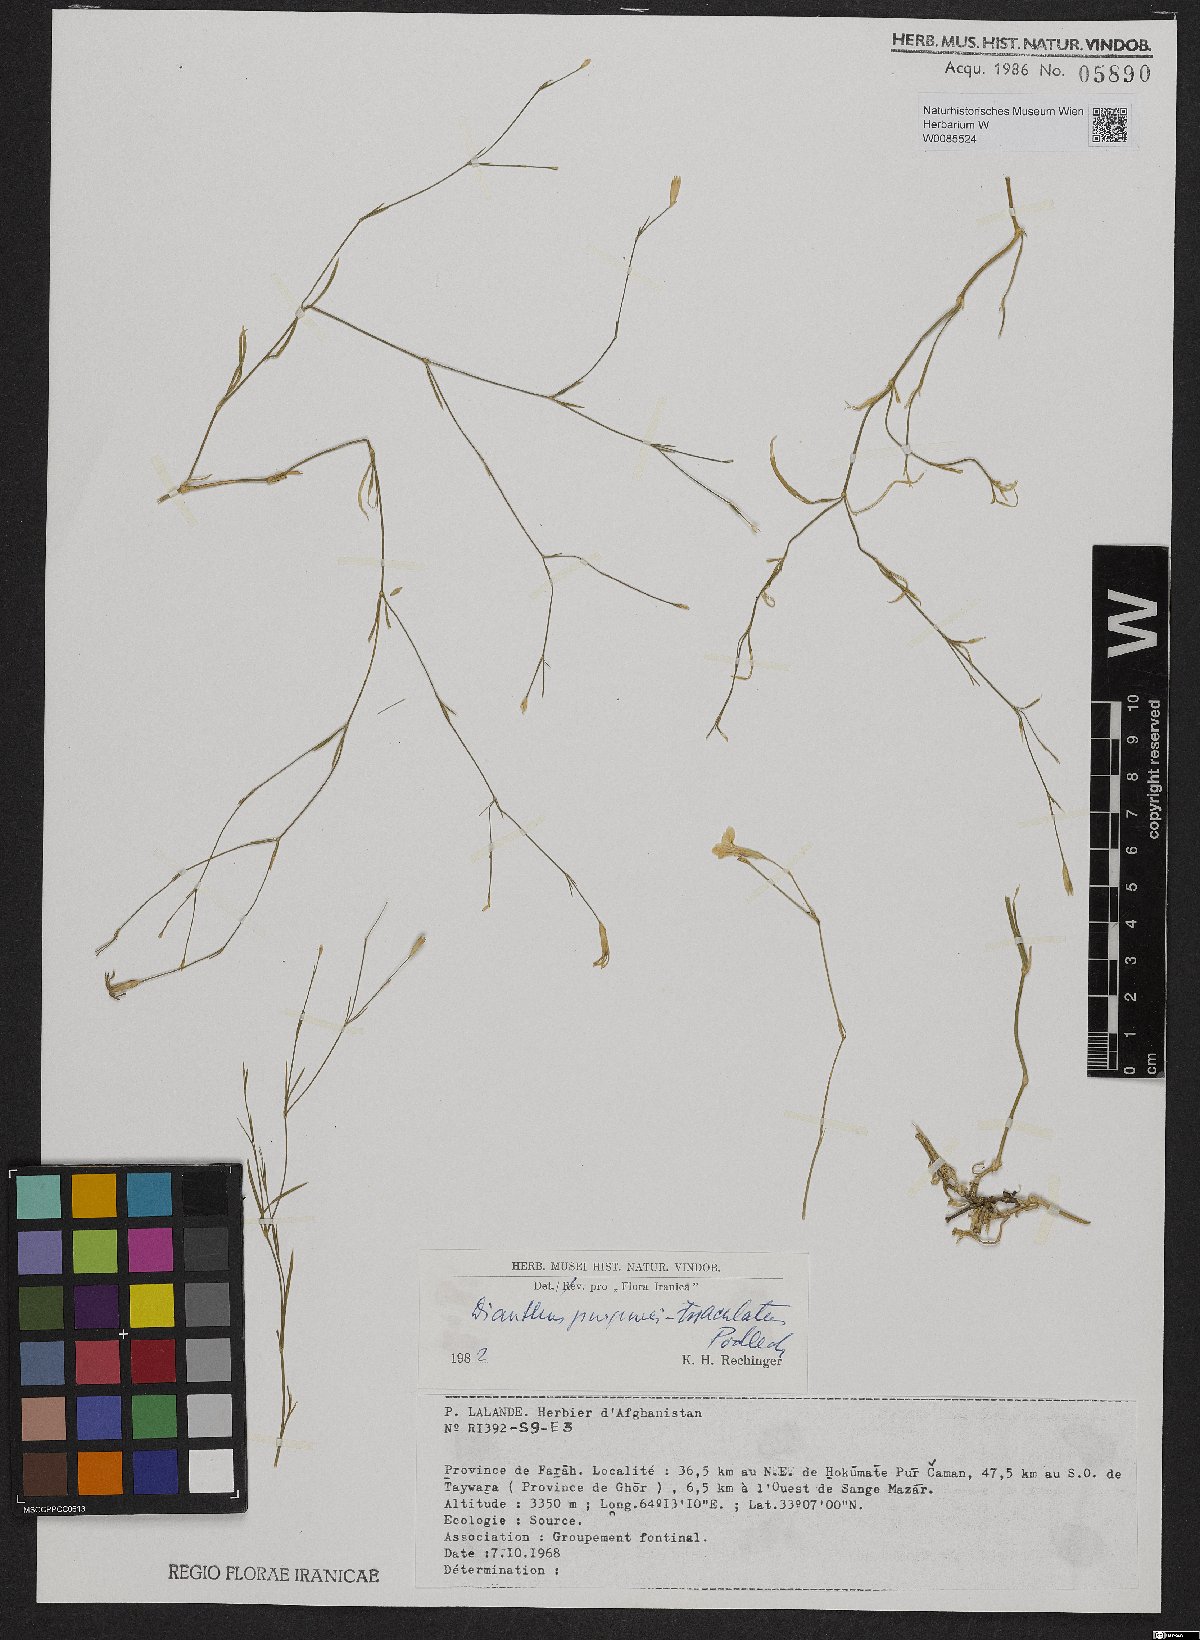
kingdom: Plantae
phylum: Tracheophyta
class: Magnoliopsida
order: Caryophyllales
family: Caryophyllaceae
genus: Dianthus
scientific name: Dianthus purpureimaculatus
